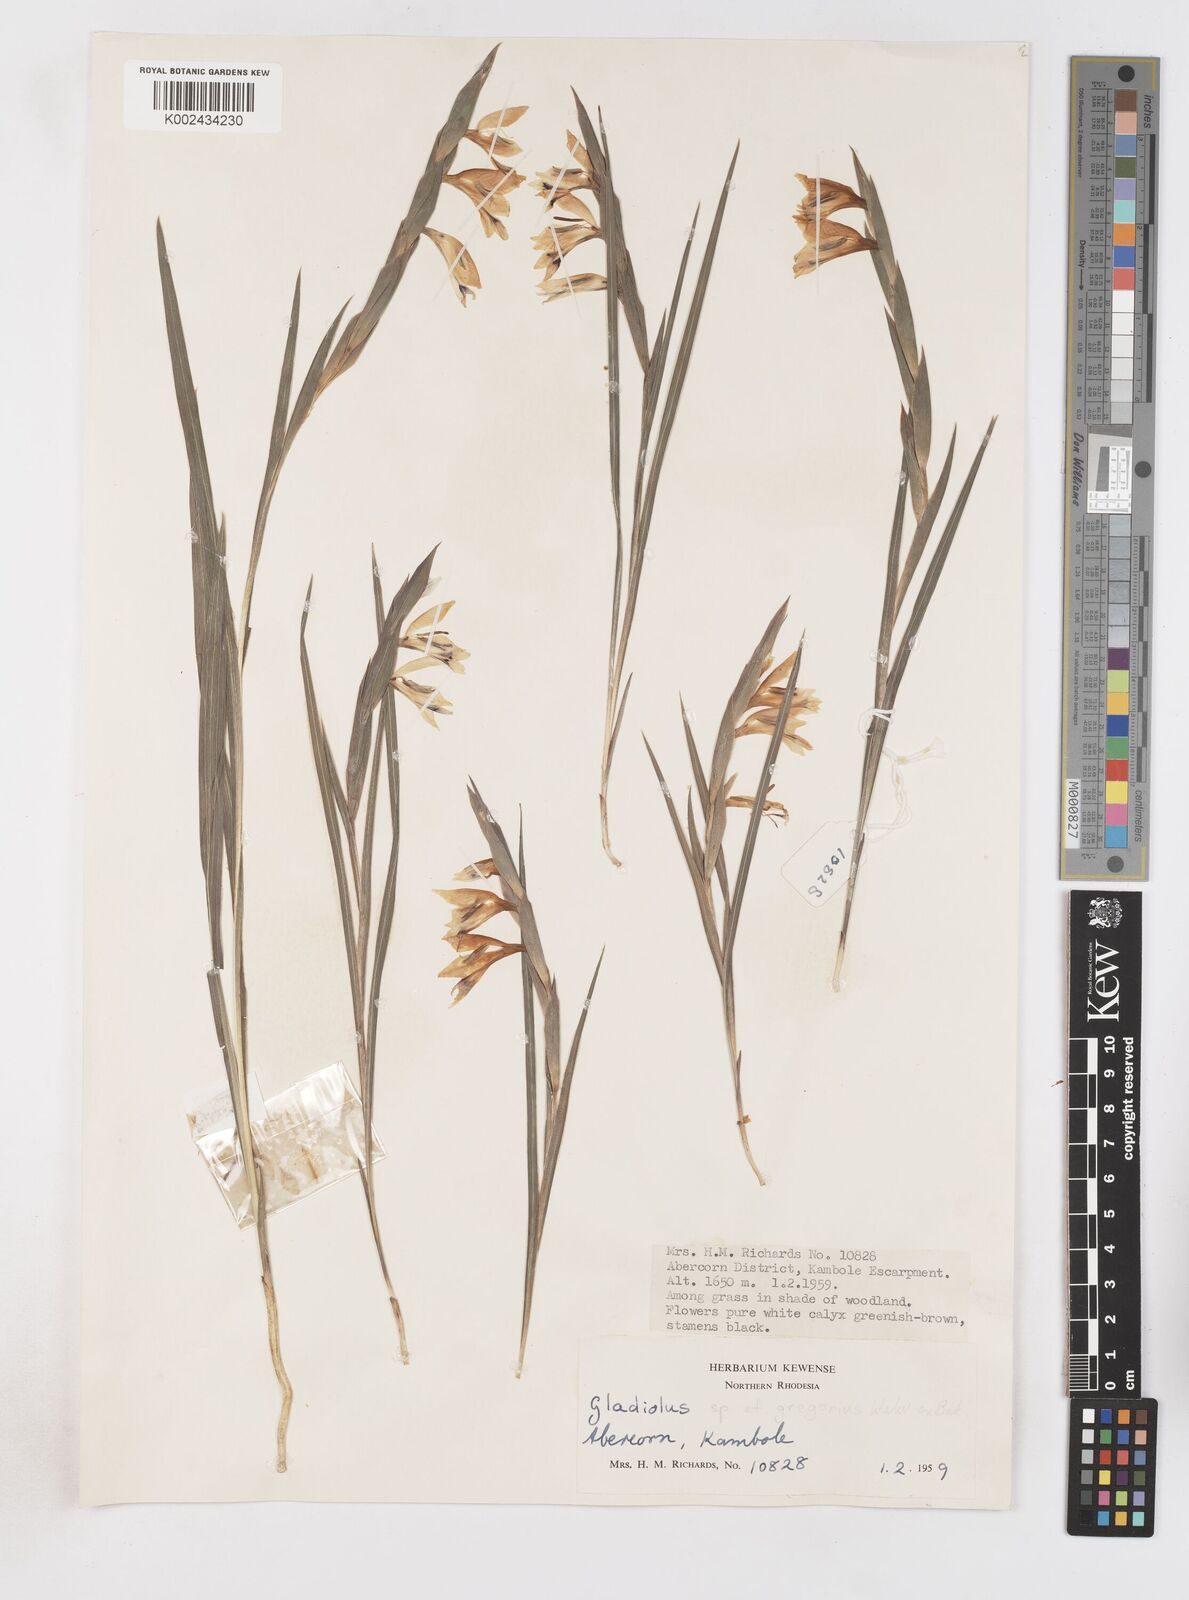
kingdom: Plantae
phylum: Tracheophyta
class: Liliopsida
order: Asparagales
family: Iridaceae
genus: Gladiolus
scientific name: Gladiolus gregarius
